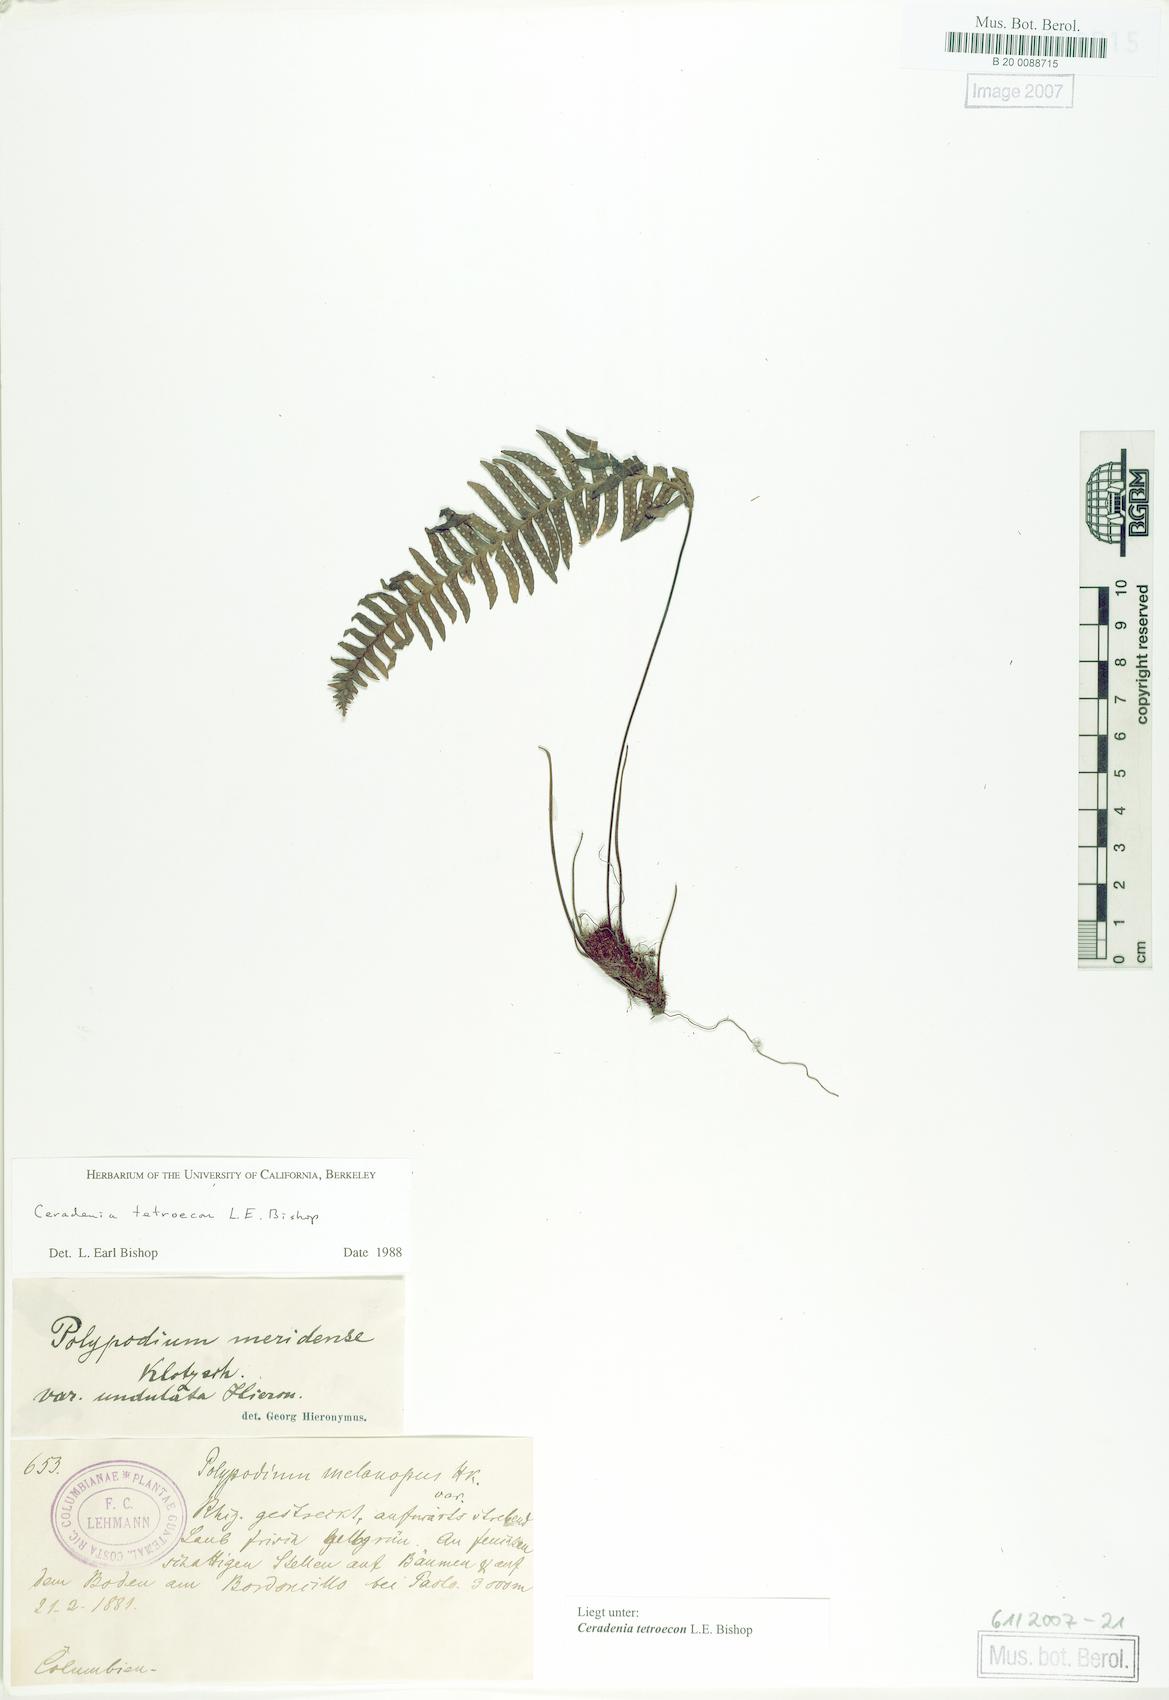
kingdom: Plantae
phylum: Tracheophyta
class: Polypodiopsida
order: Polypodiales
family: Polypodiaceae
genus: Ceradenia
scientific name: Ceradenia
